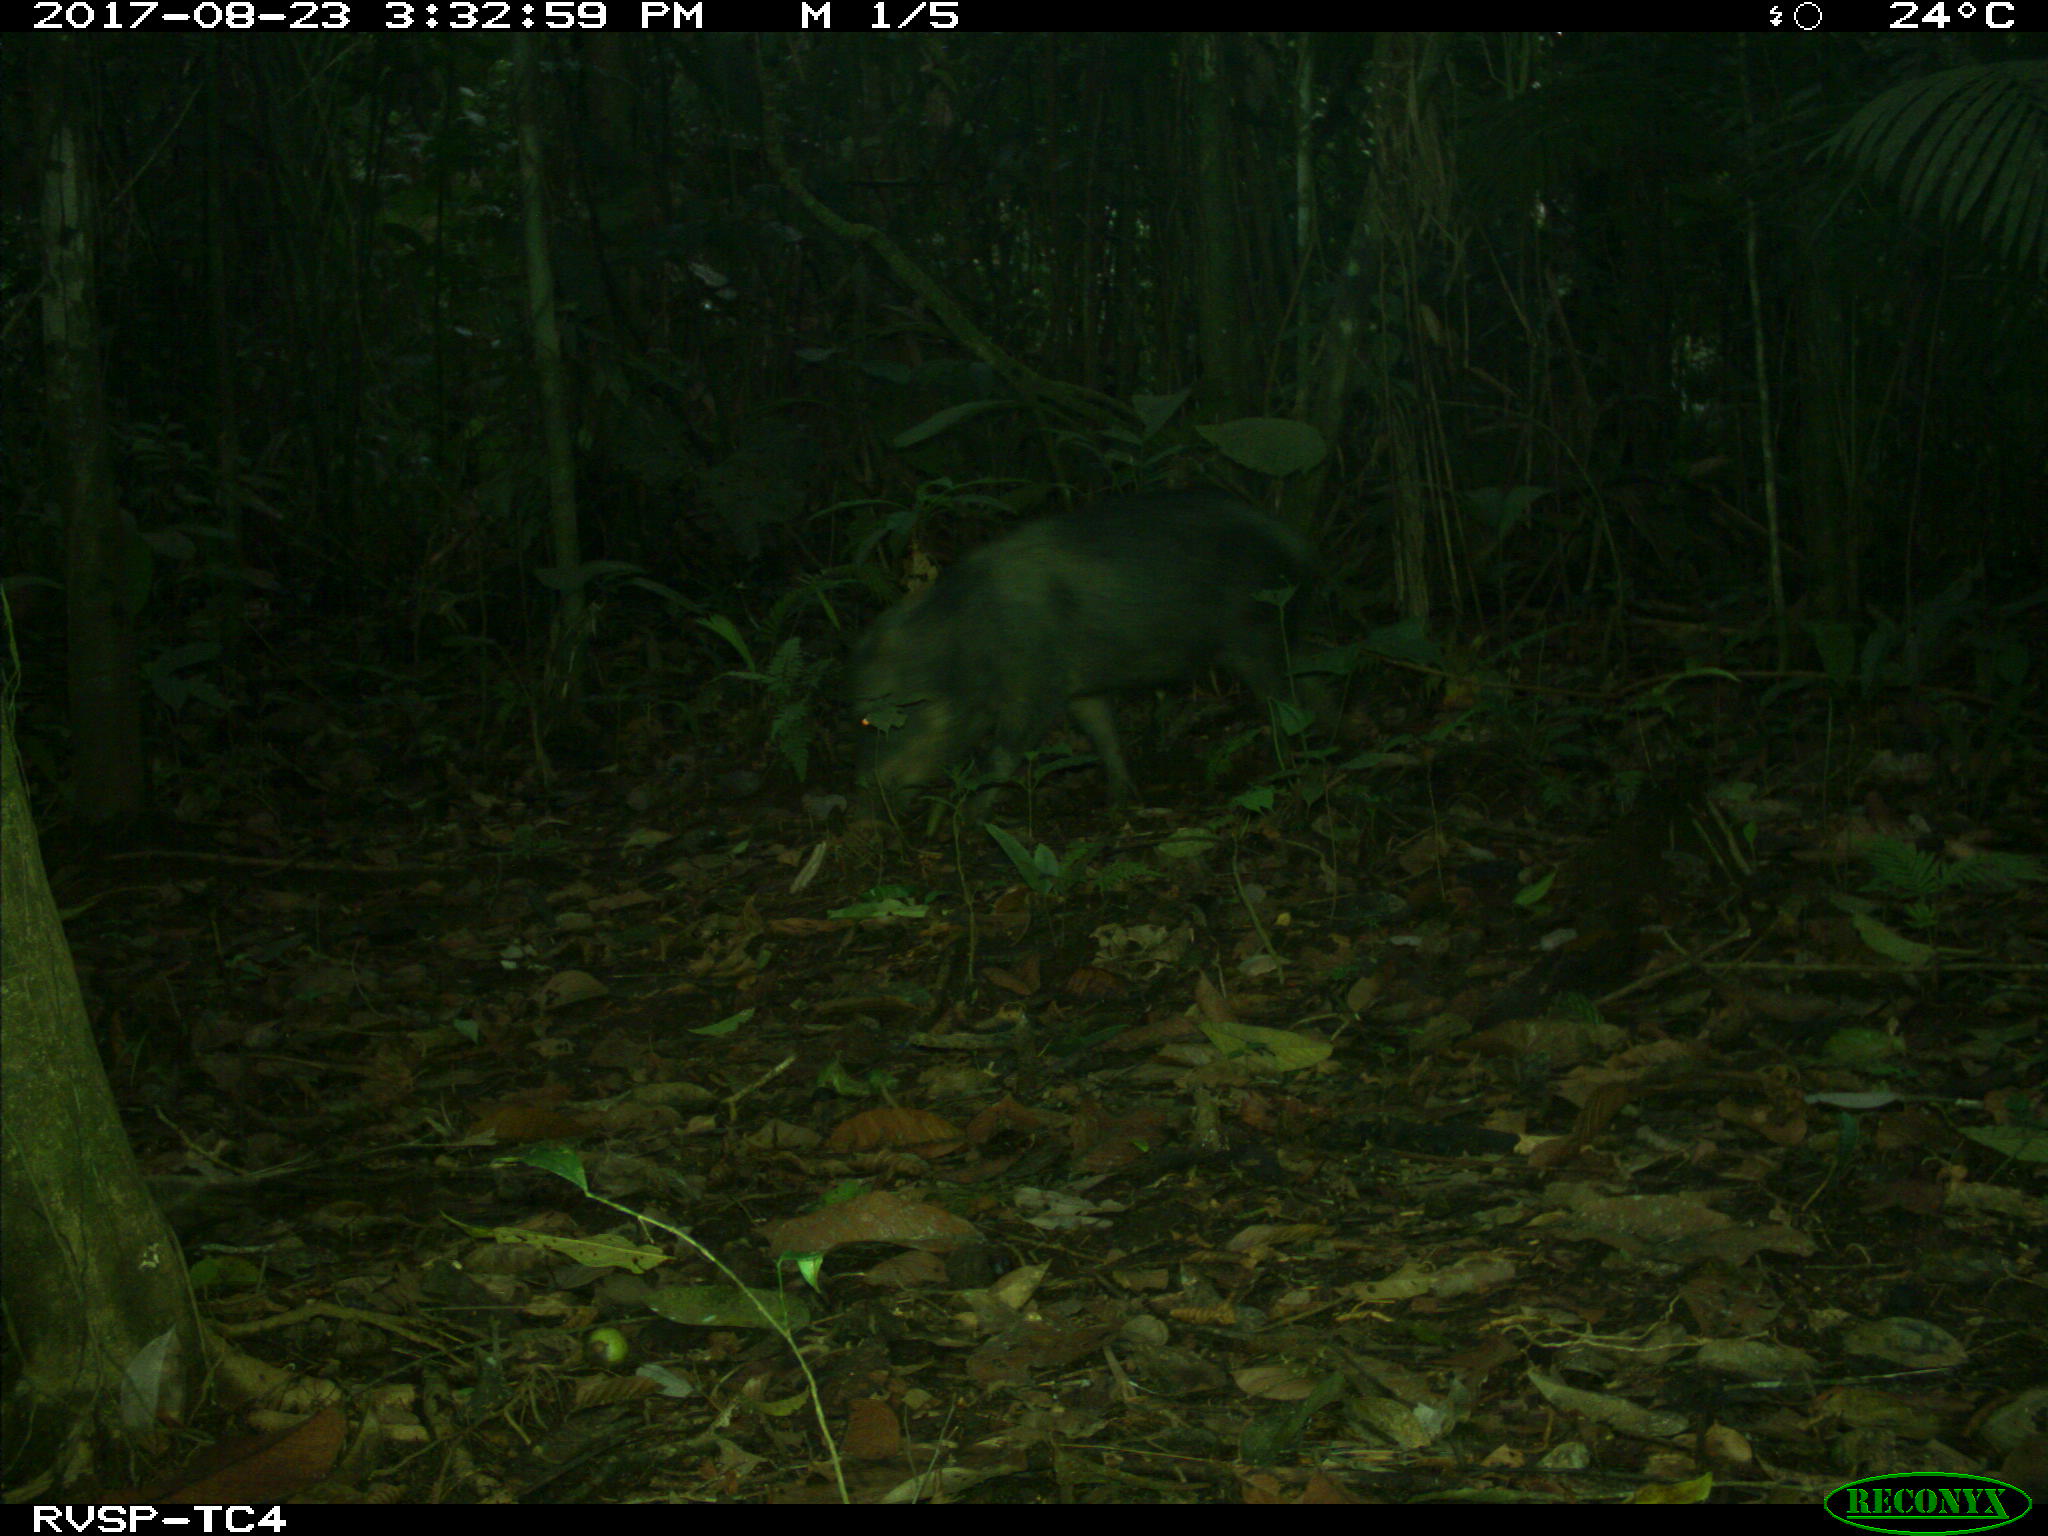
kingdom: Animalia
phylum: Chordata
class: Mammalia
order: Artiodactyla
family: Tayassuidae
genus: Tayassu
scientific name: Tayassu pecari
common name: White-lipped peccary
